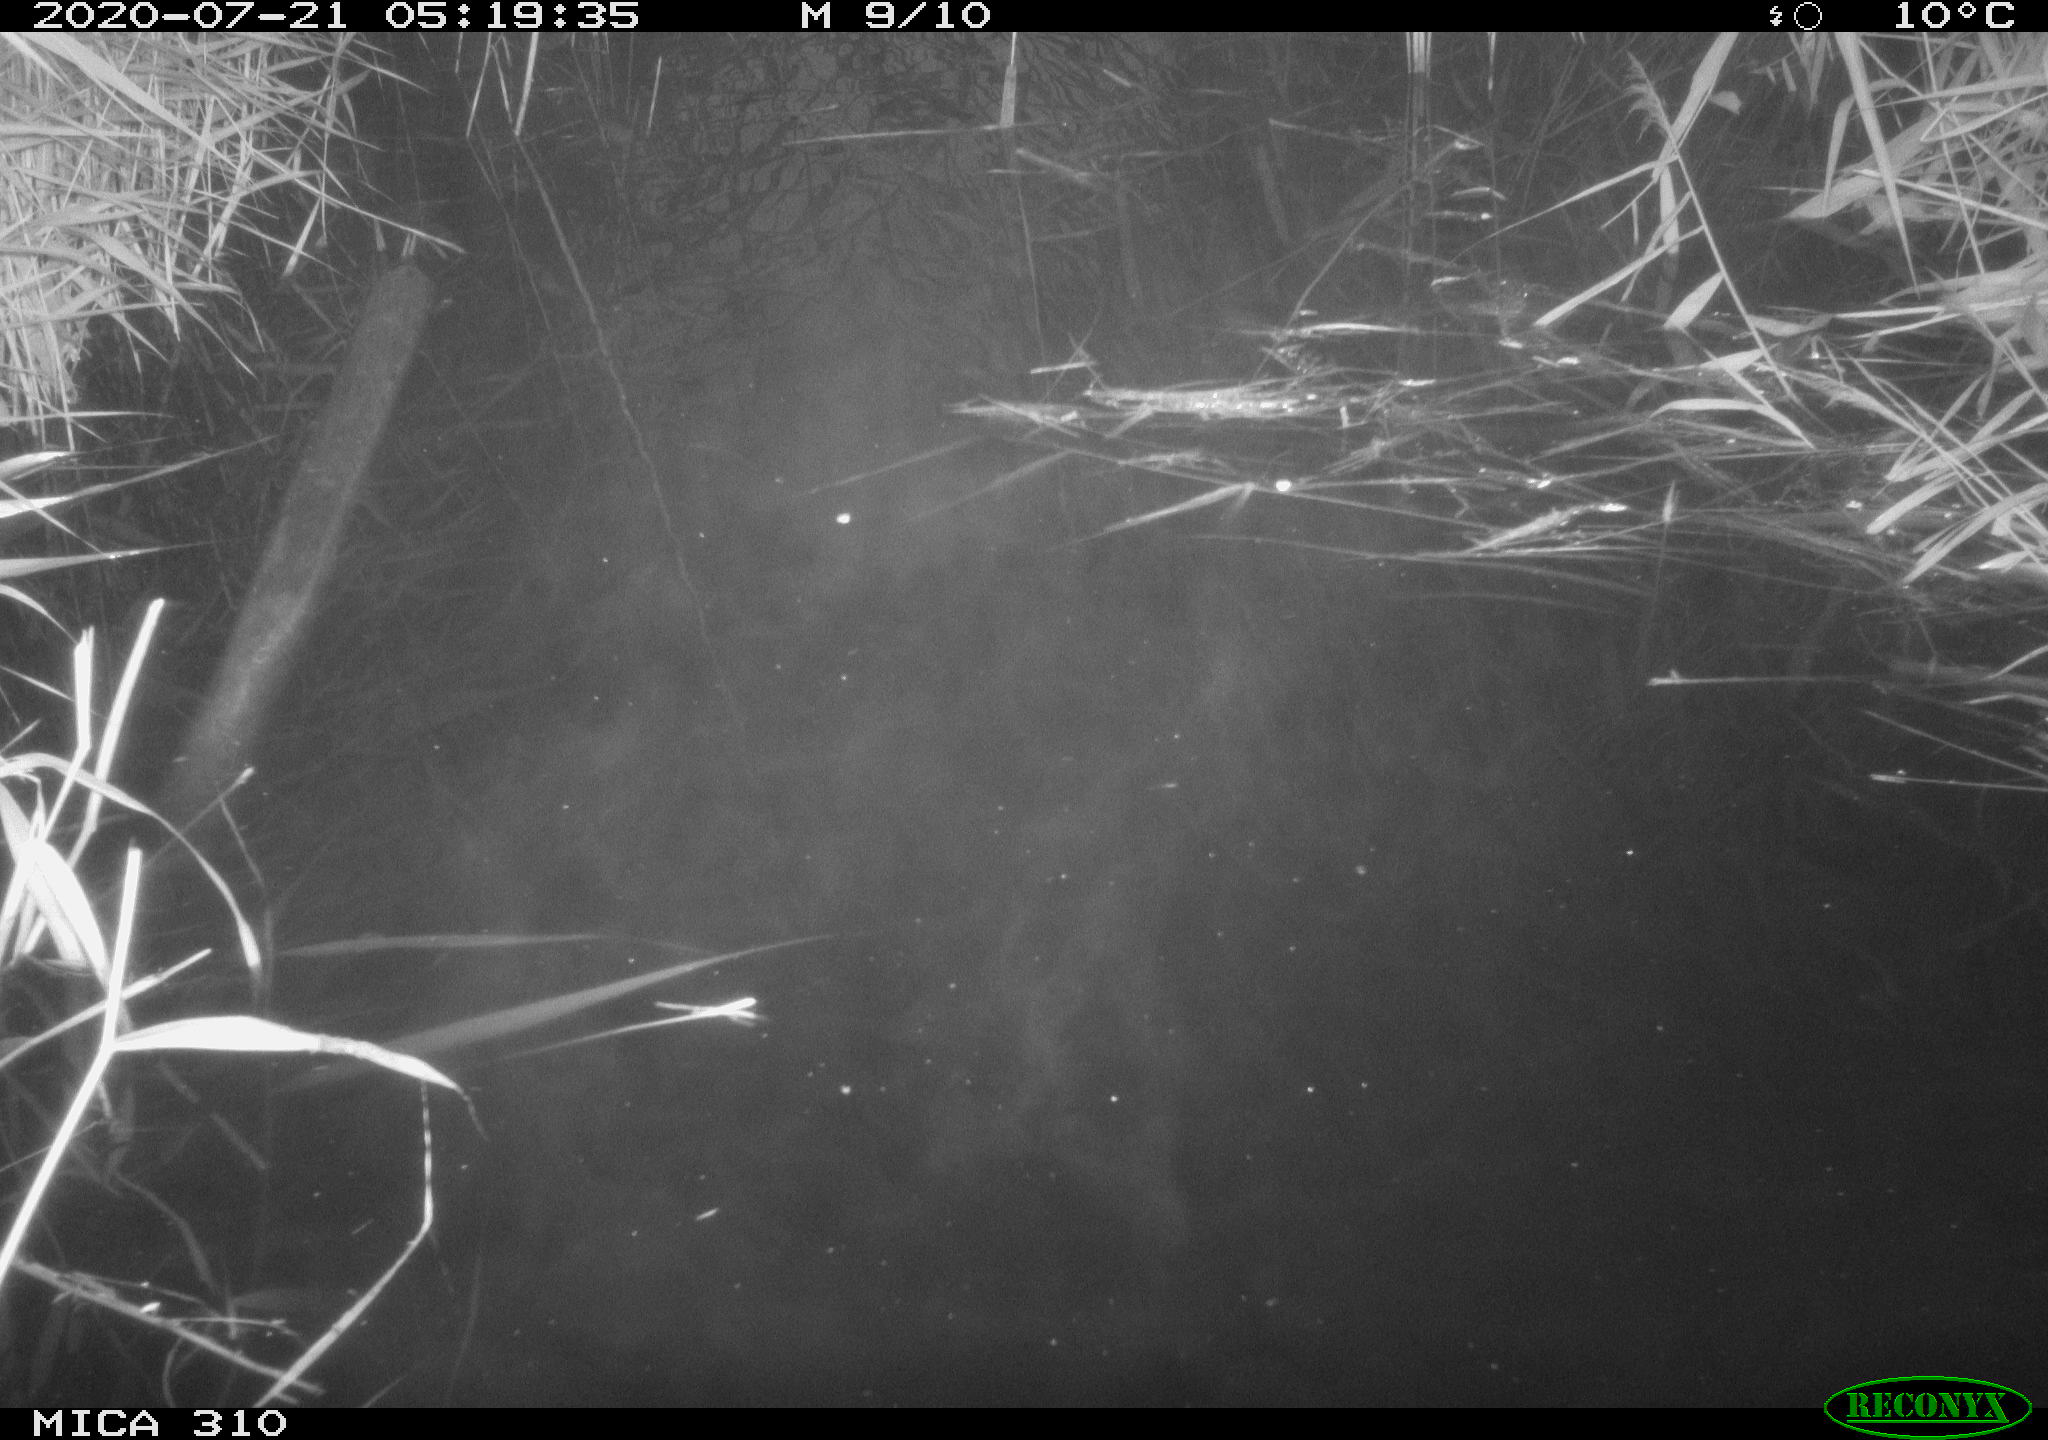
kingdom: Animalia
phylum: Chordata
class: Aves
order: Gruiformes
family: Rallidae
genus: Gallinula
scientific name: Gallinula chloropus
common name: Common moorhen
